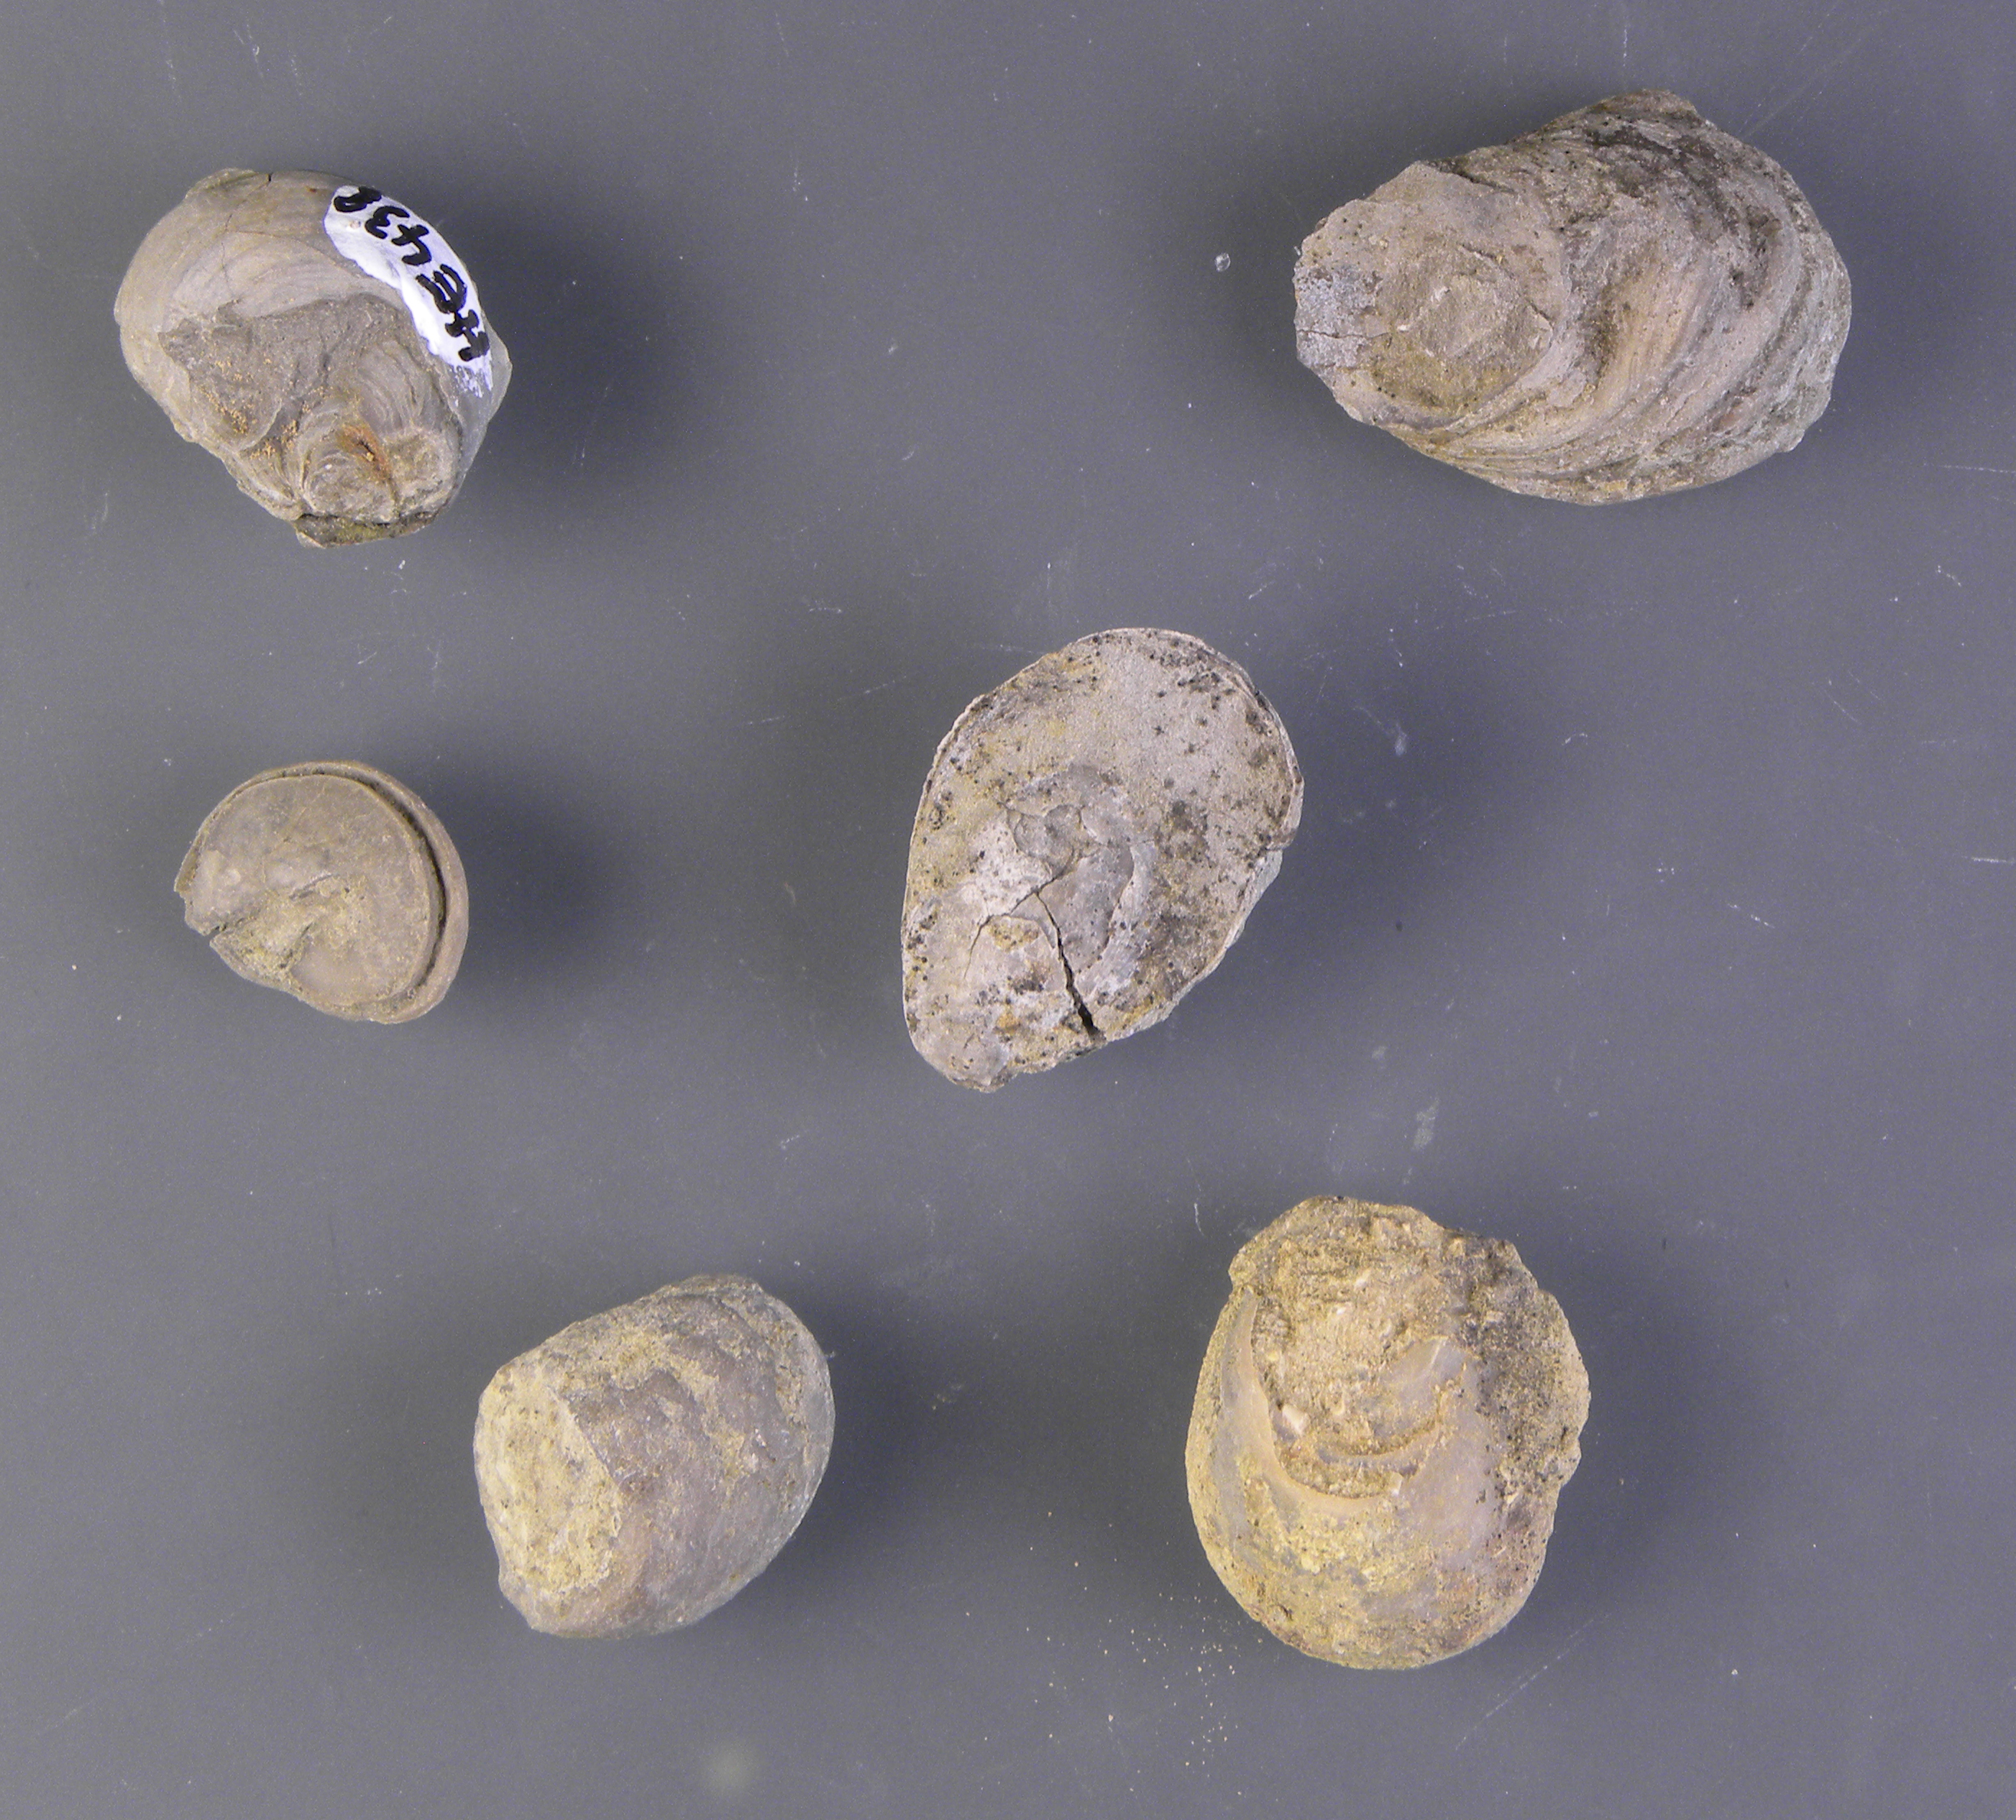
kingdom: Animalia
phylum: Mollusca
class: Bivalvia
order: Ostreida
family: Gryphaeidae
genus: Gryphaea
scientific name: Gryphaea
